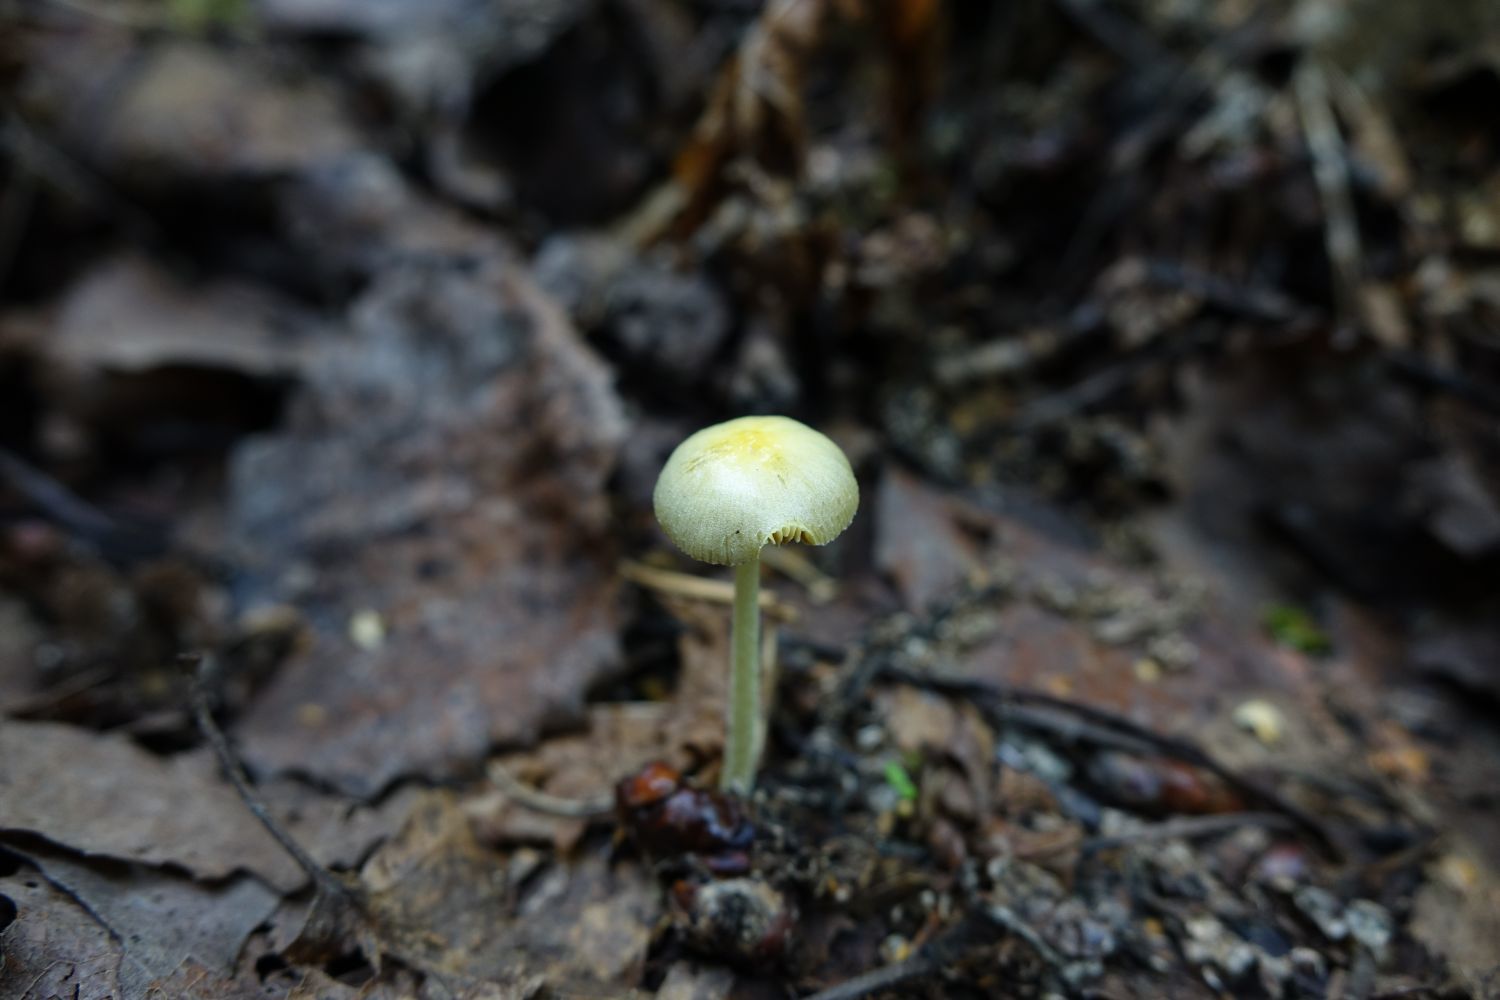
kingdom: Fungi
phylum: Basidiomycota
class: Agaricomycetes
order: Agaricales
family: Bolbitiaceae
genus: Bolbitius
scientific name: Bolbitius titubans
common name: Yellow fieldcap
